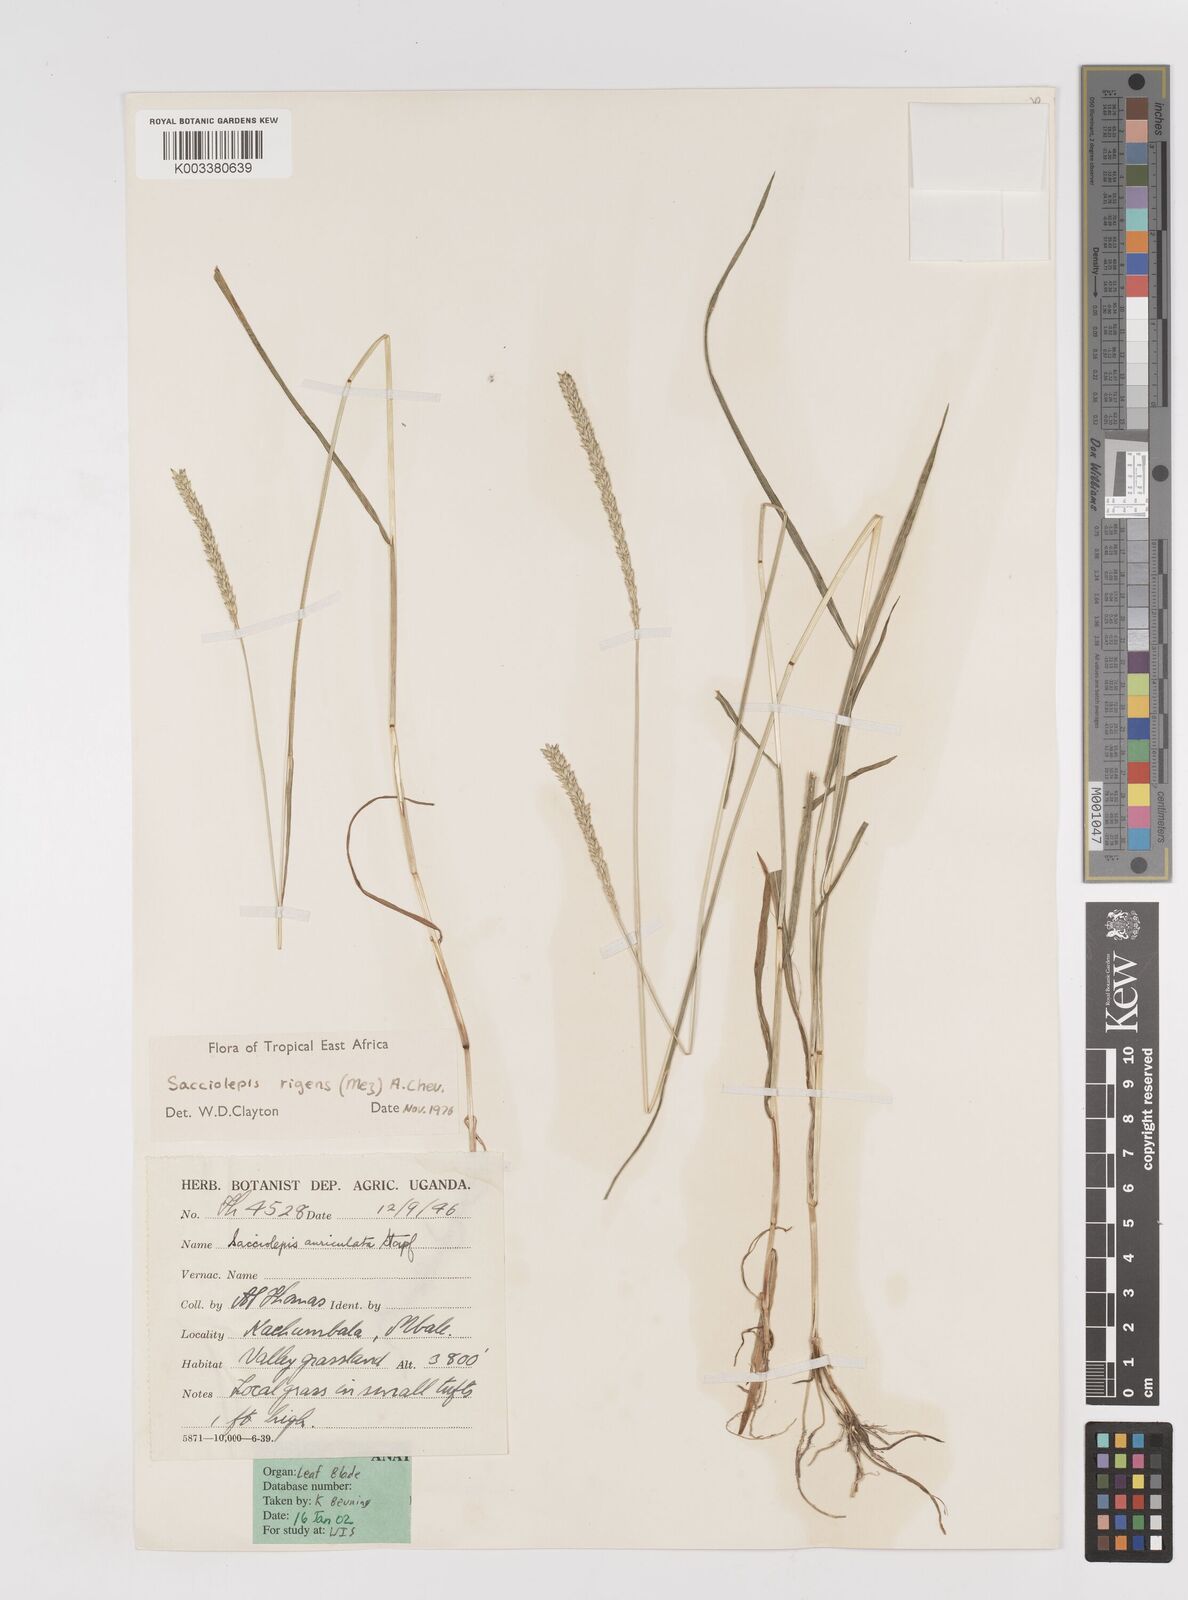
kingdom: Plantae
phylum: Tracheophyta
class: Liliopsida
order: Poales
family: Poaceae
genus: Sacciolepis
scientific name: Sacciolepis indica
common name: Glenwoodgrass
